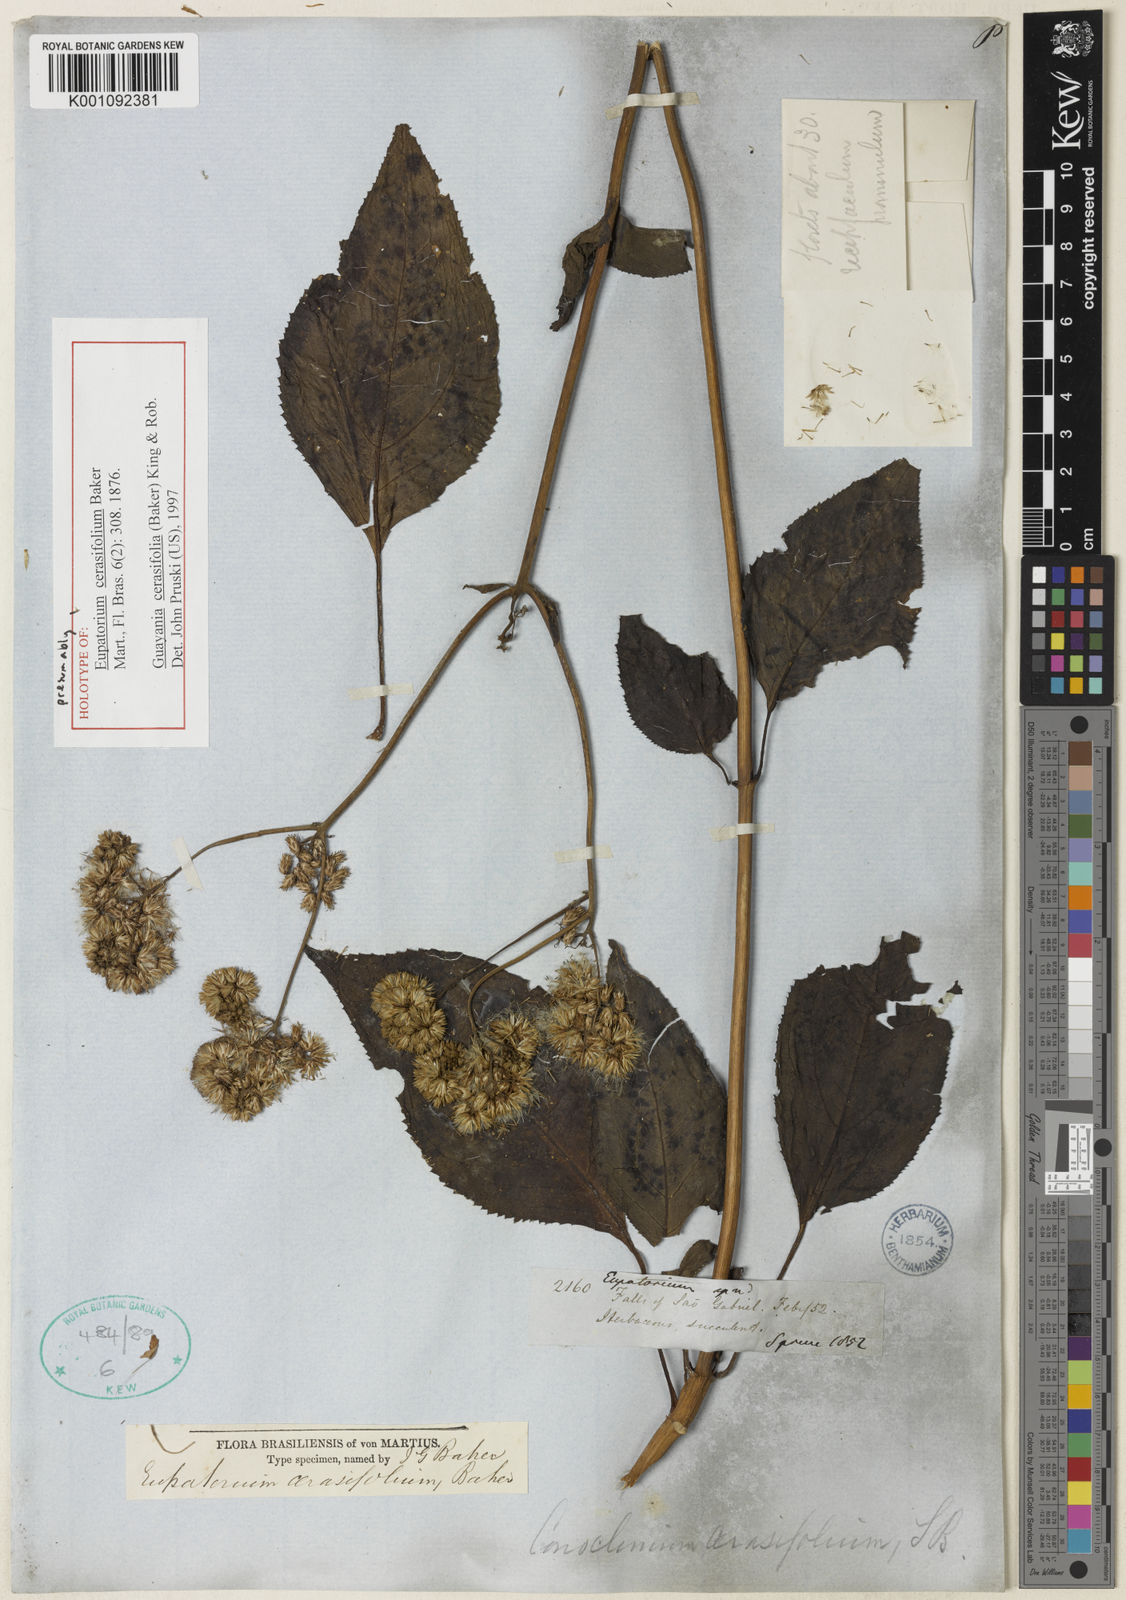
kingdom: Plantae
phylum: Tracheophyta
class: Magnoliopsida
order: Asterales
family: Asteraceae
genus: Guayania
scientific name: Guayania cerasifolia
